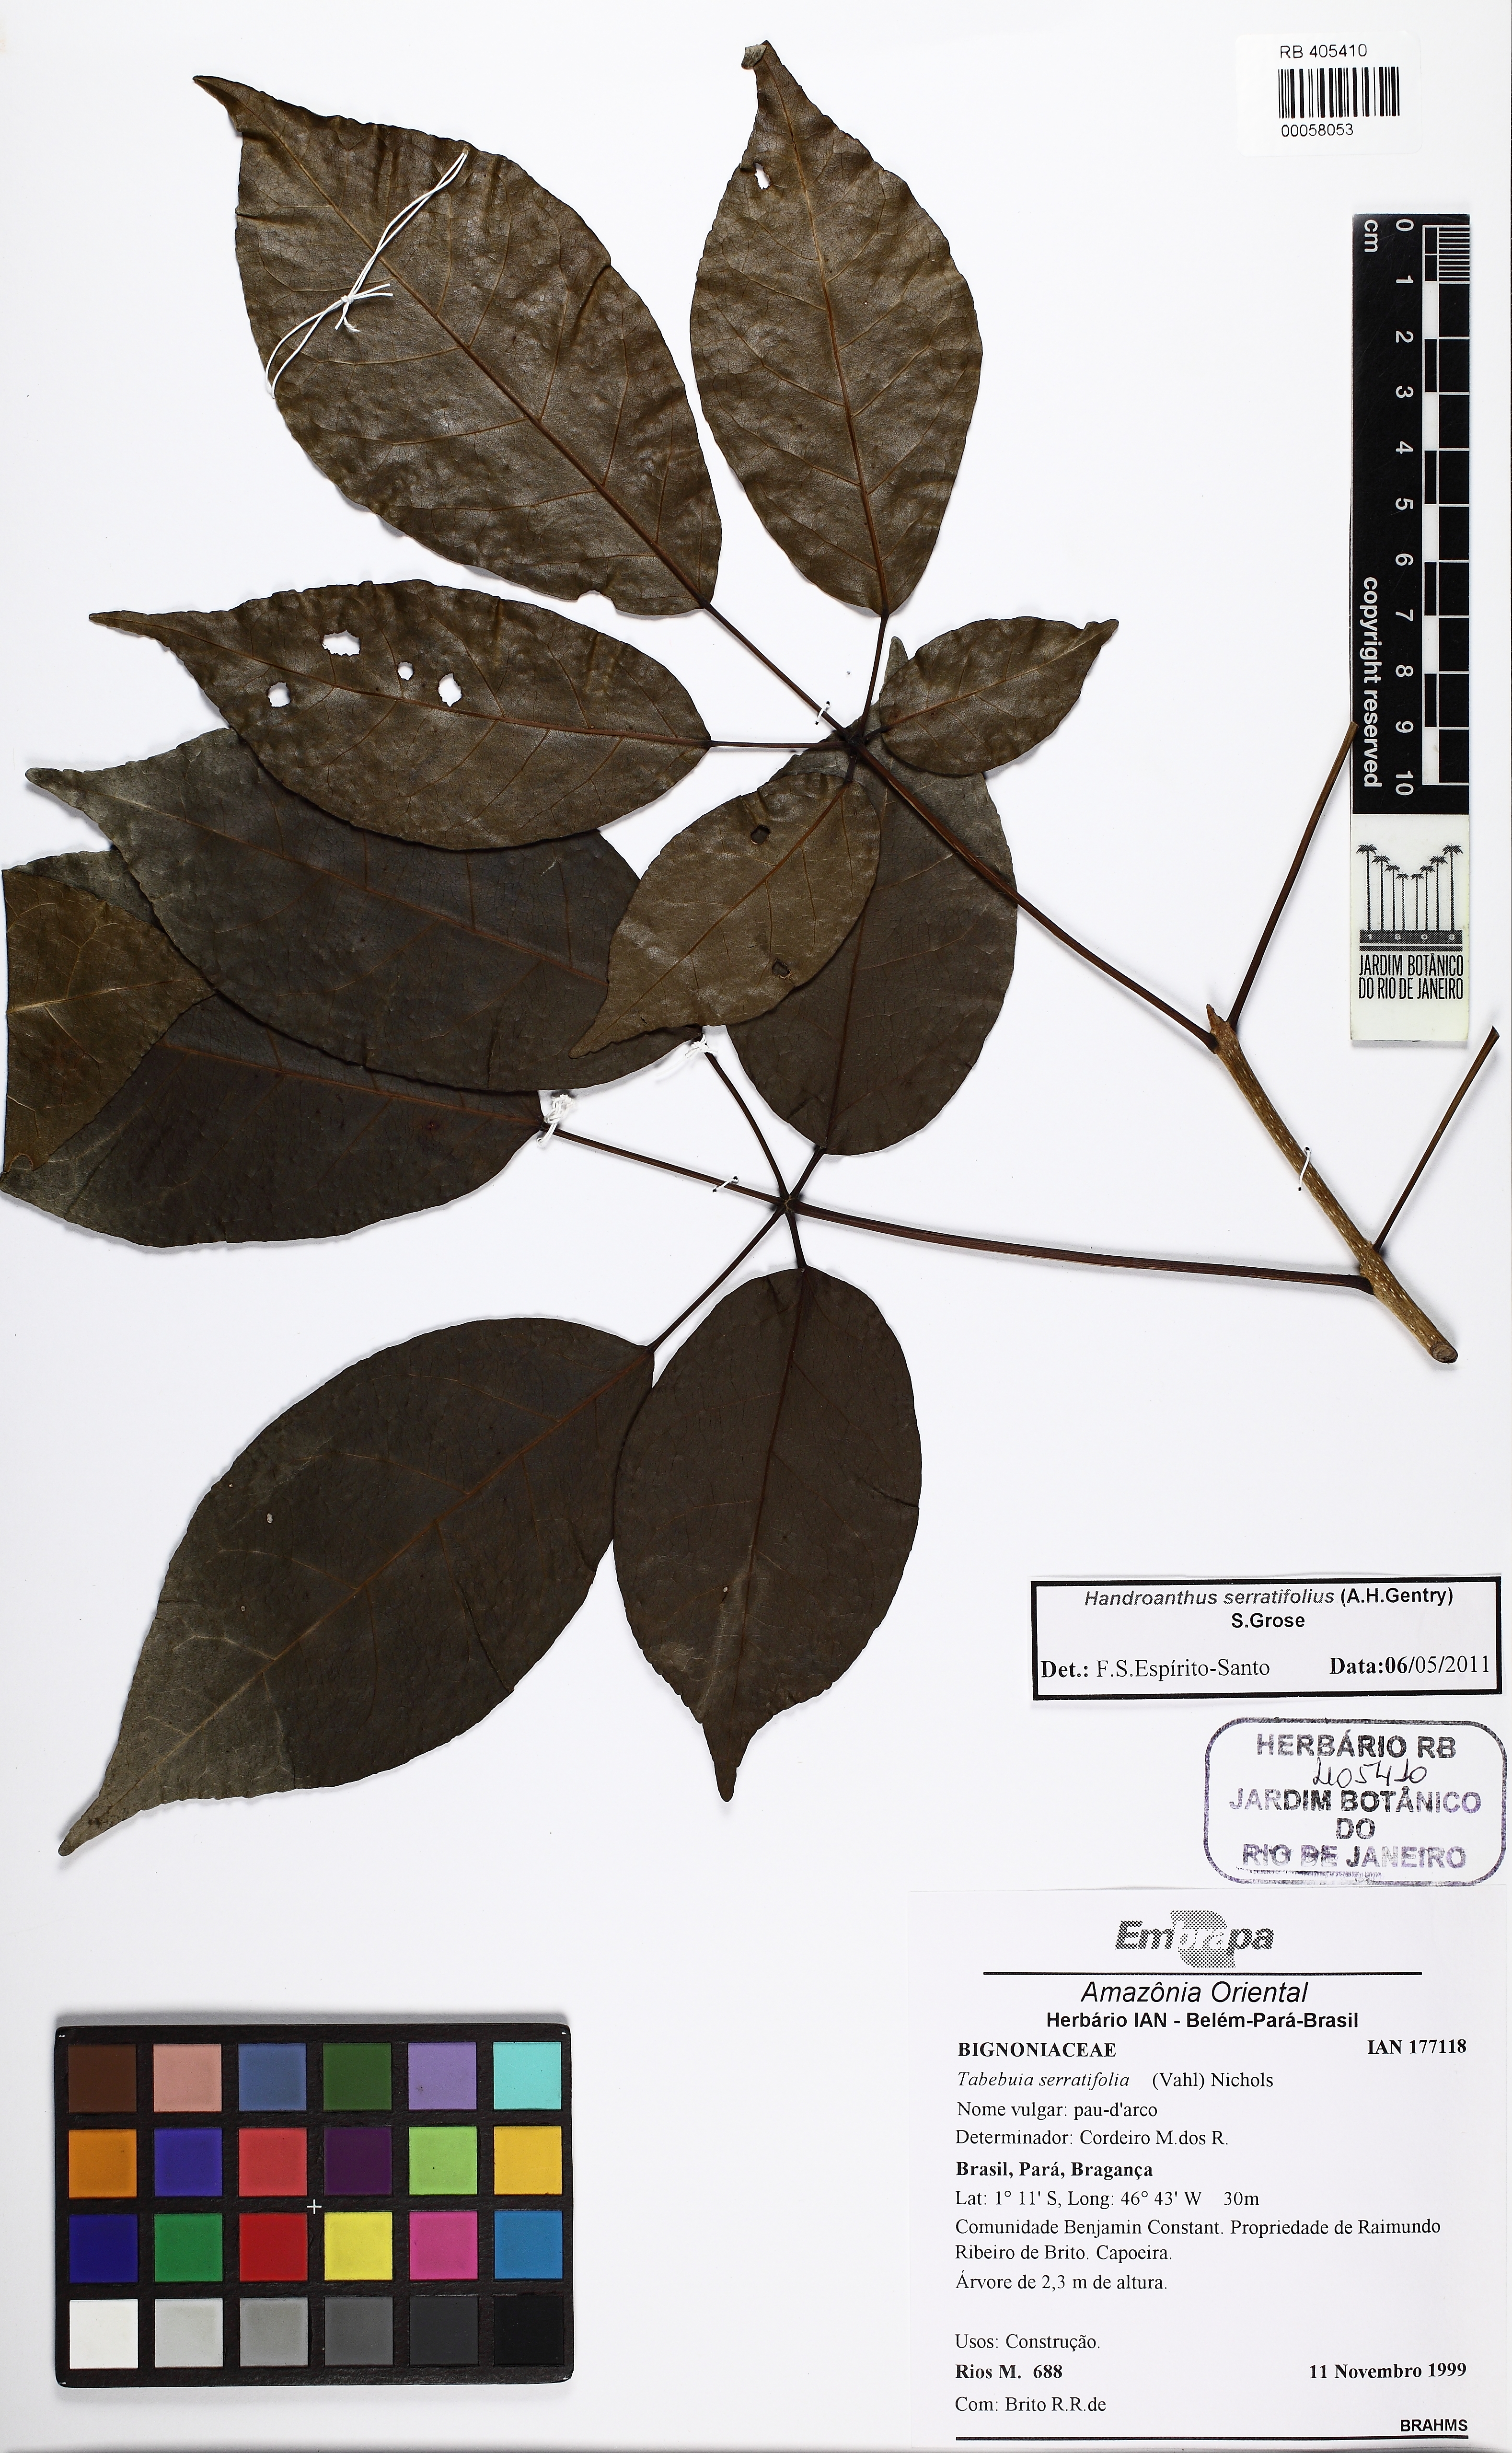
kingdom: Plantae
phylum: Tracheophyta
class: Magnoliopsida
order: Lamiales
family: Bignoniaceae
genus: Handroanthus
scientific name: Handroanthus serratifolius
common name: Yellow ipe
